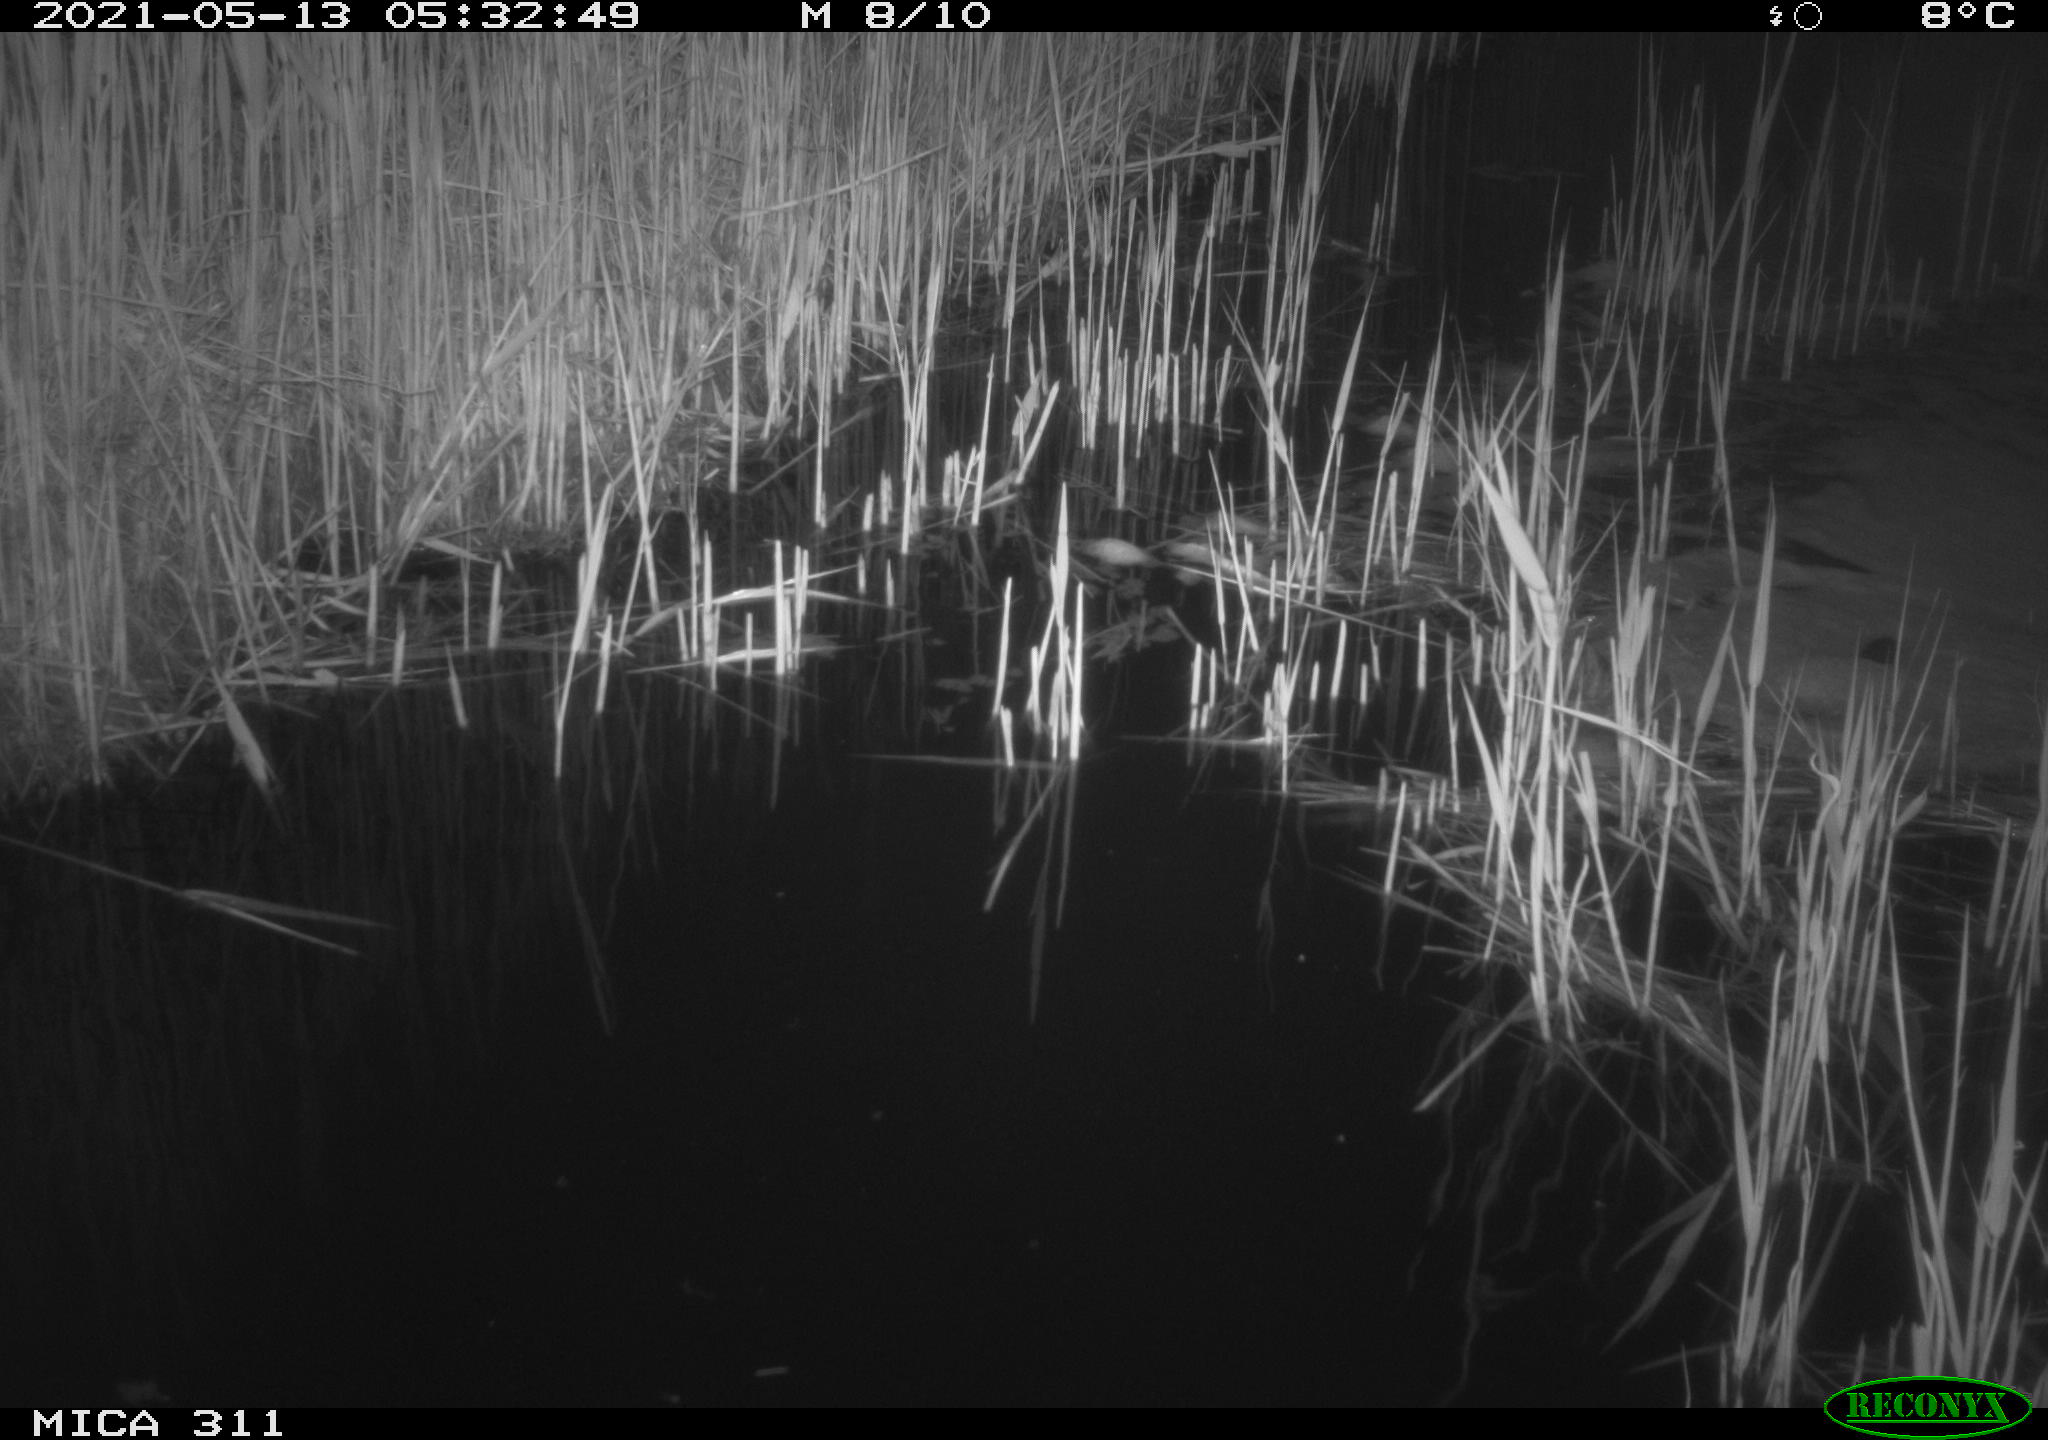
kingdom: Animalia
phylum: Chordata
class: Aves
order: Gruiformes
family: Rallidae
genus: Gallinula
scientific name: Gallinula chloropus
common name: Common moorhen
